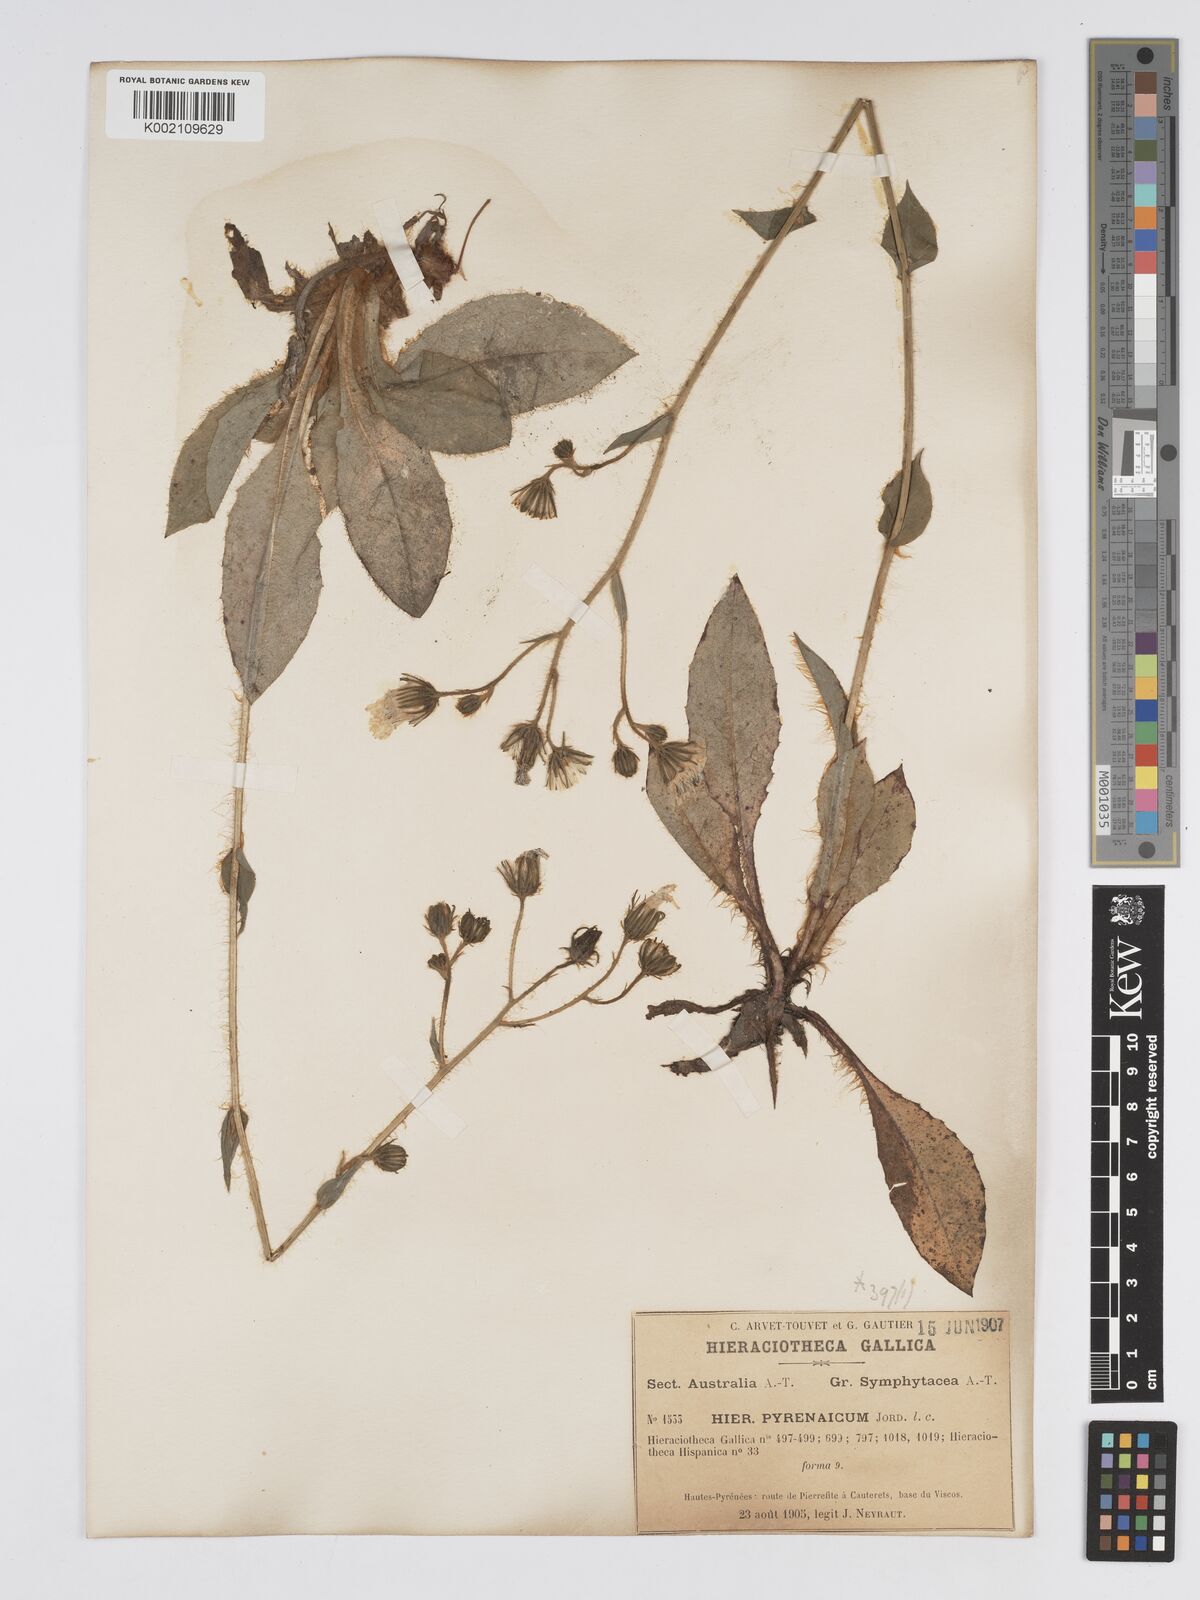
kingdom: Plantae
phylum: Tracheophyta
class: Magnoliopsida
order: Asterales
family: Asteraceae
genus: Hieracium
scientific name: Hieracium nobile
